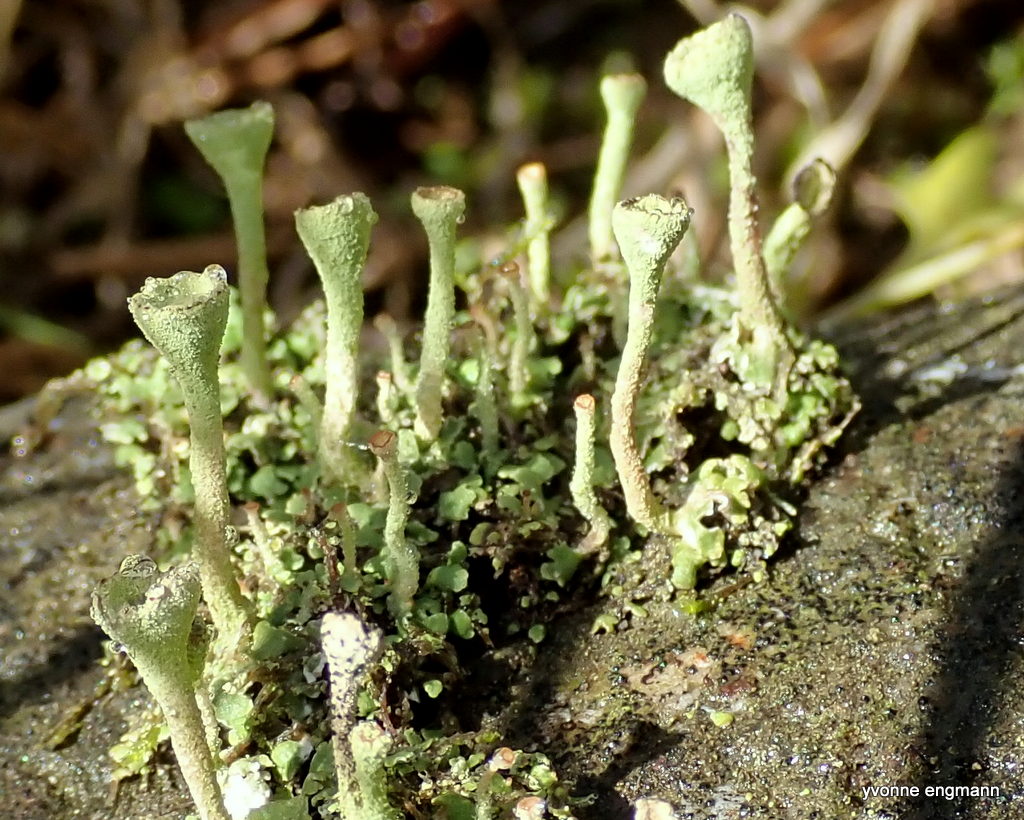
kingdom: Fungi
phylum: Ascomycota
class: Lecanoromycetes
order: Lecanorales
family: Cladoniaceae
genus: Cladonia
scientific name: Cladonia fimbriata
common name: bleggrøn bægerlav
